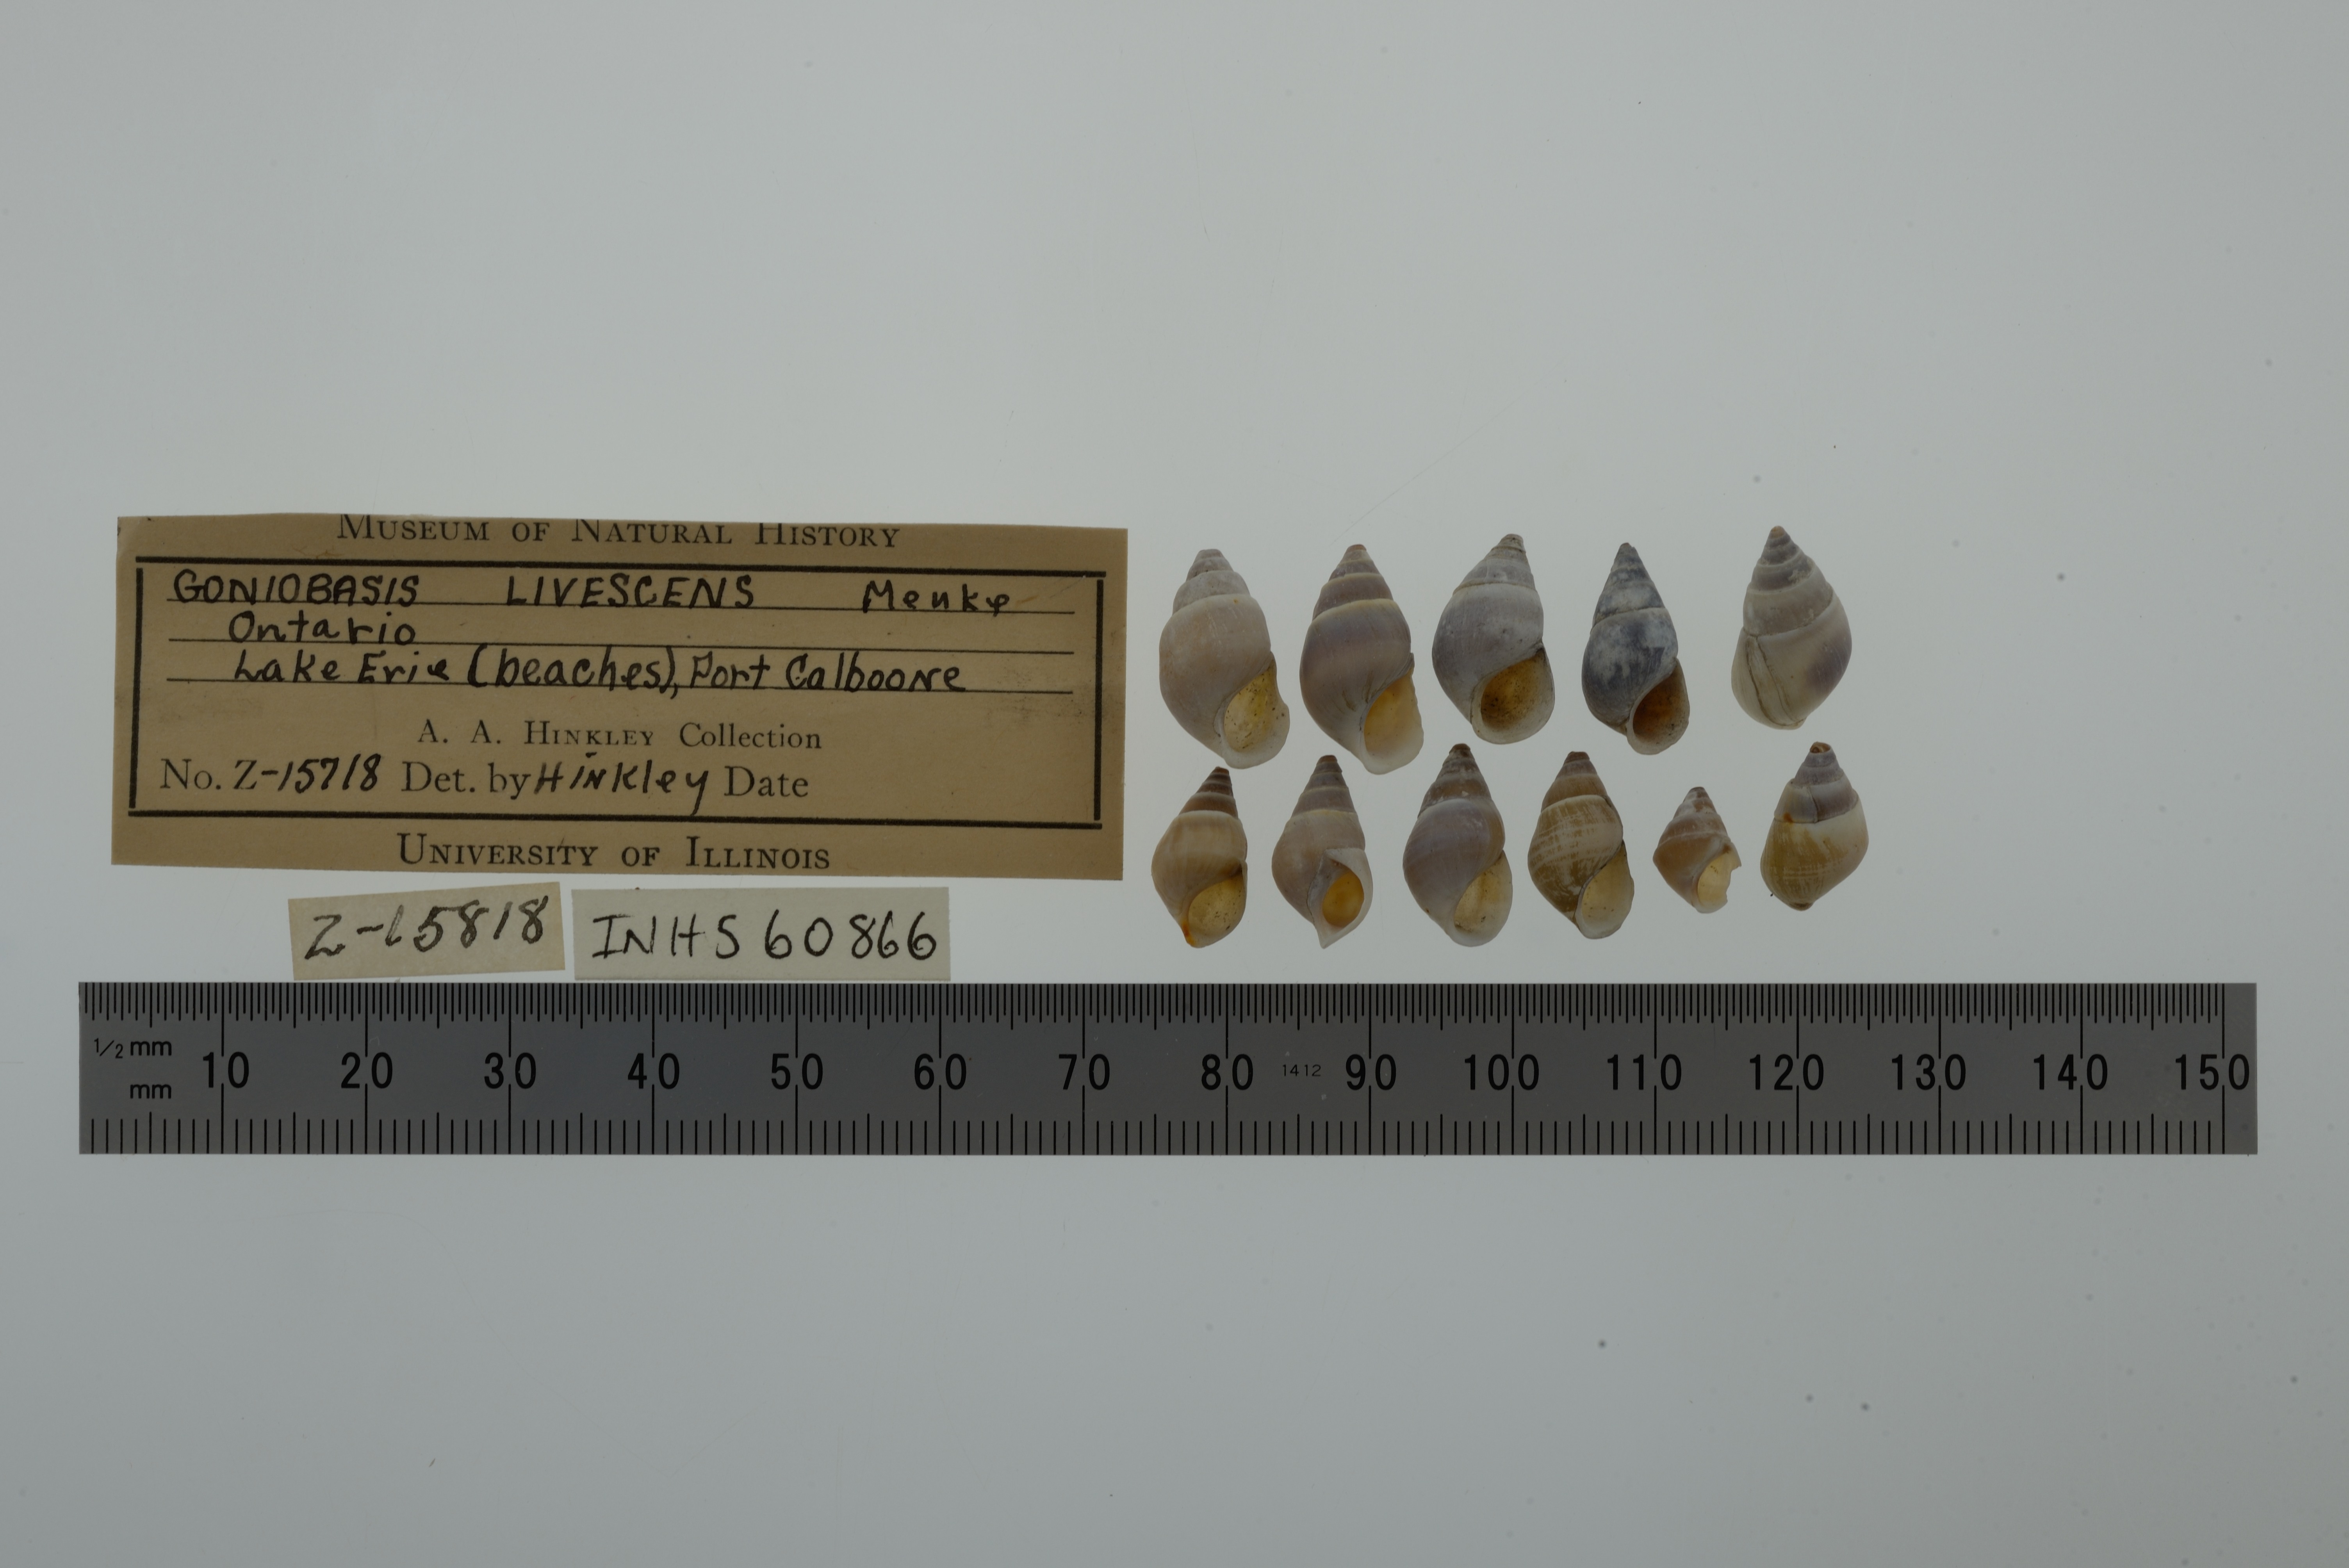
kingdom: Animalia
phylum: Mollusca
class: Gastropoda
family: Pleuroceridae
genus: Elimia
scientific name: Elimia livescens
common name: Liver elimia
